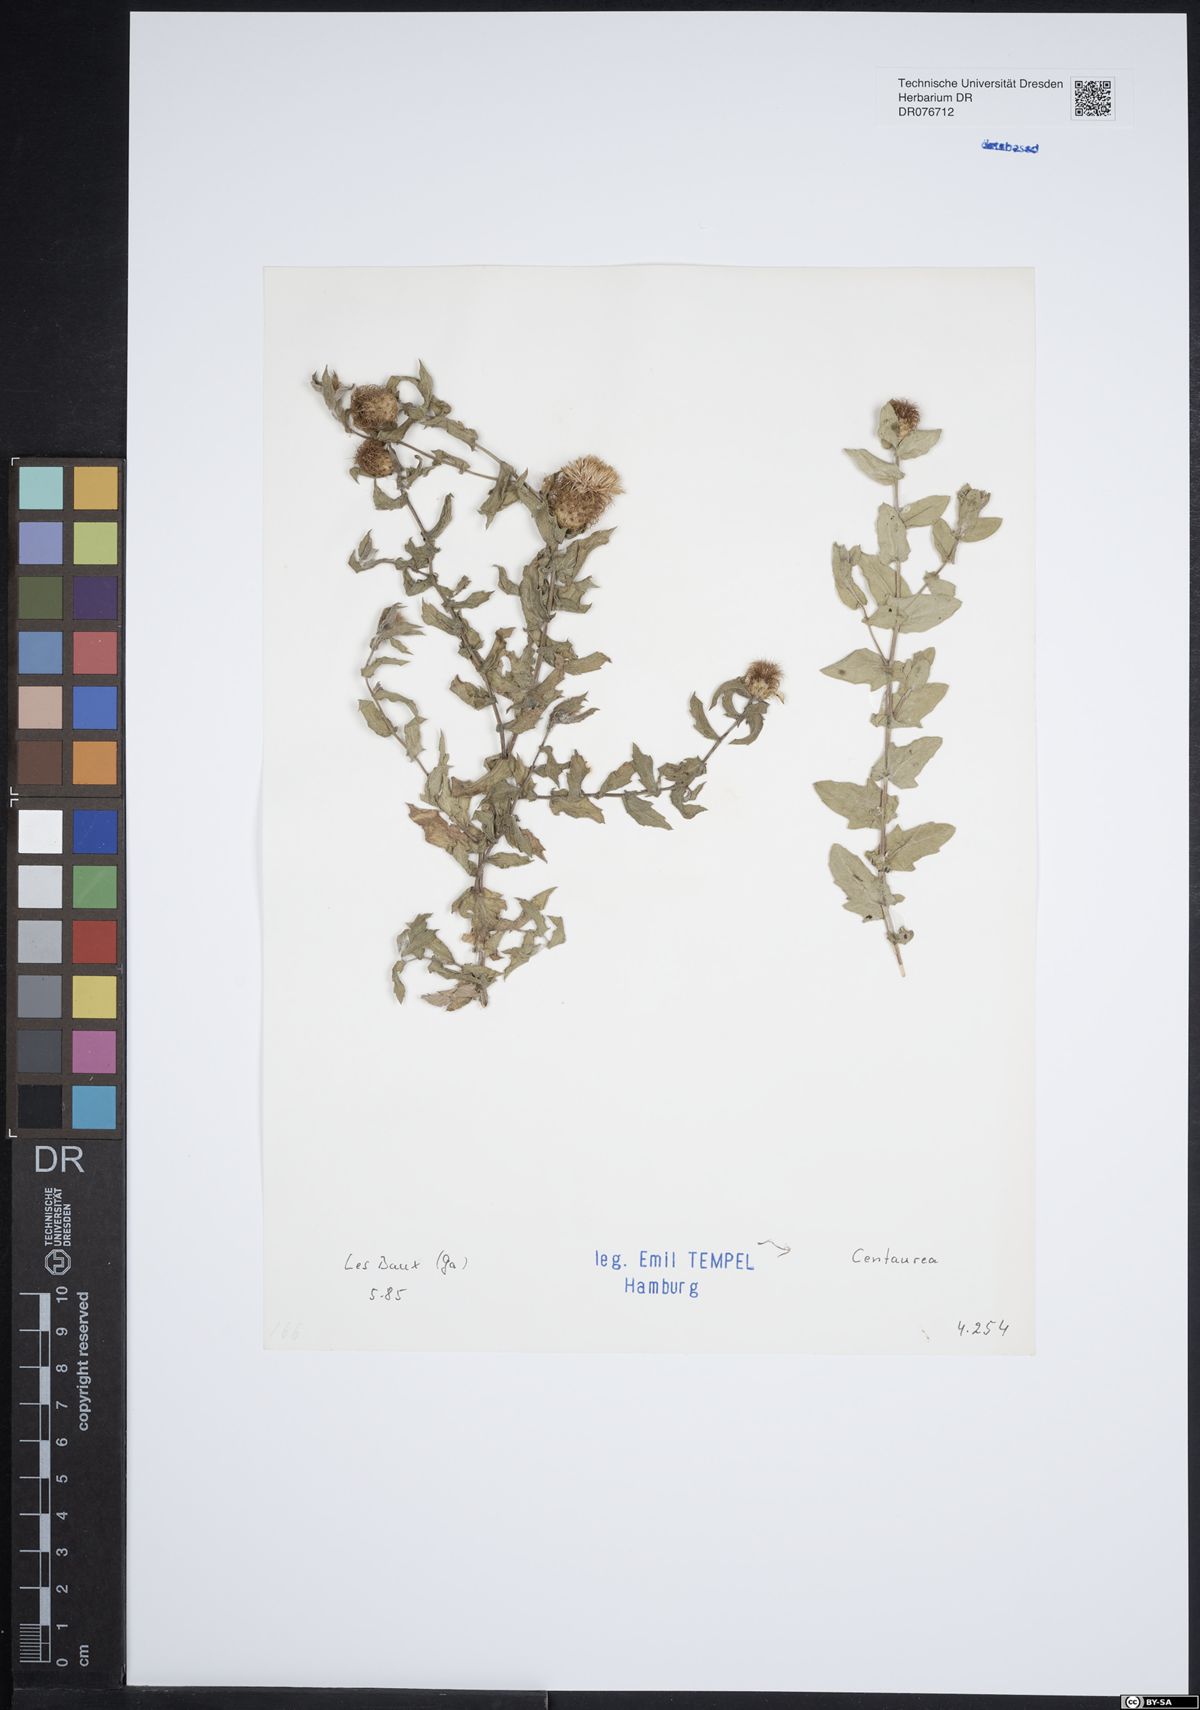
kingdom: Plantae
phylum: Tracheophyta
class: Magnoliopsida
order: Asterales
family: Asteraceae
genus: Centaurea
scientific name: Centaurea
